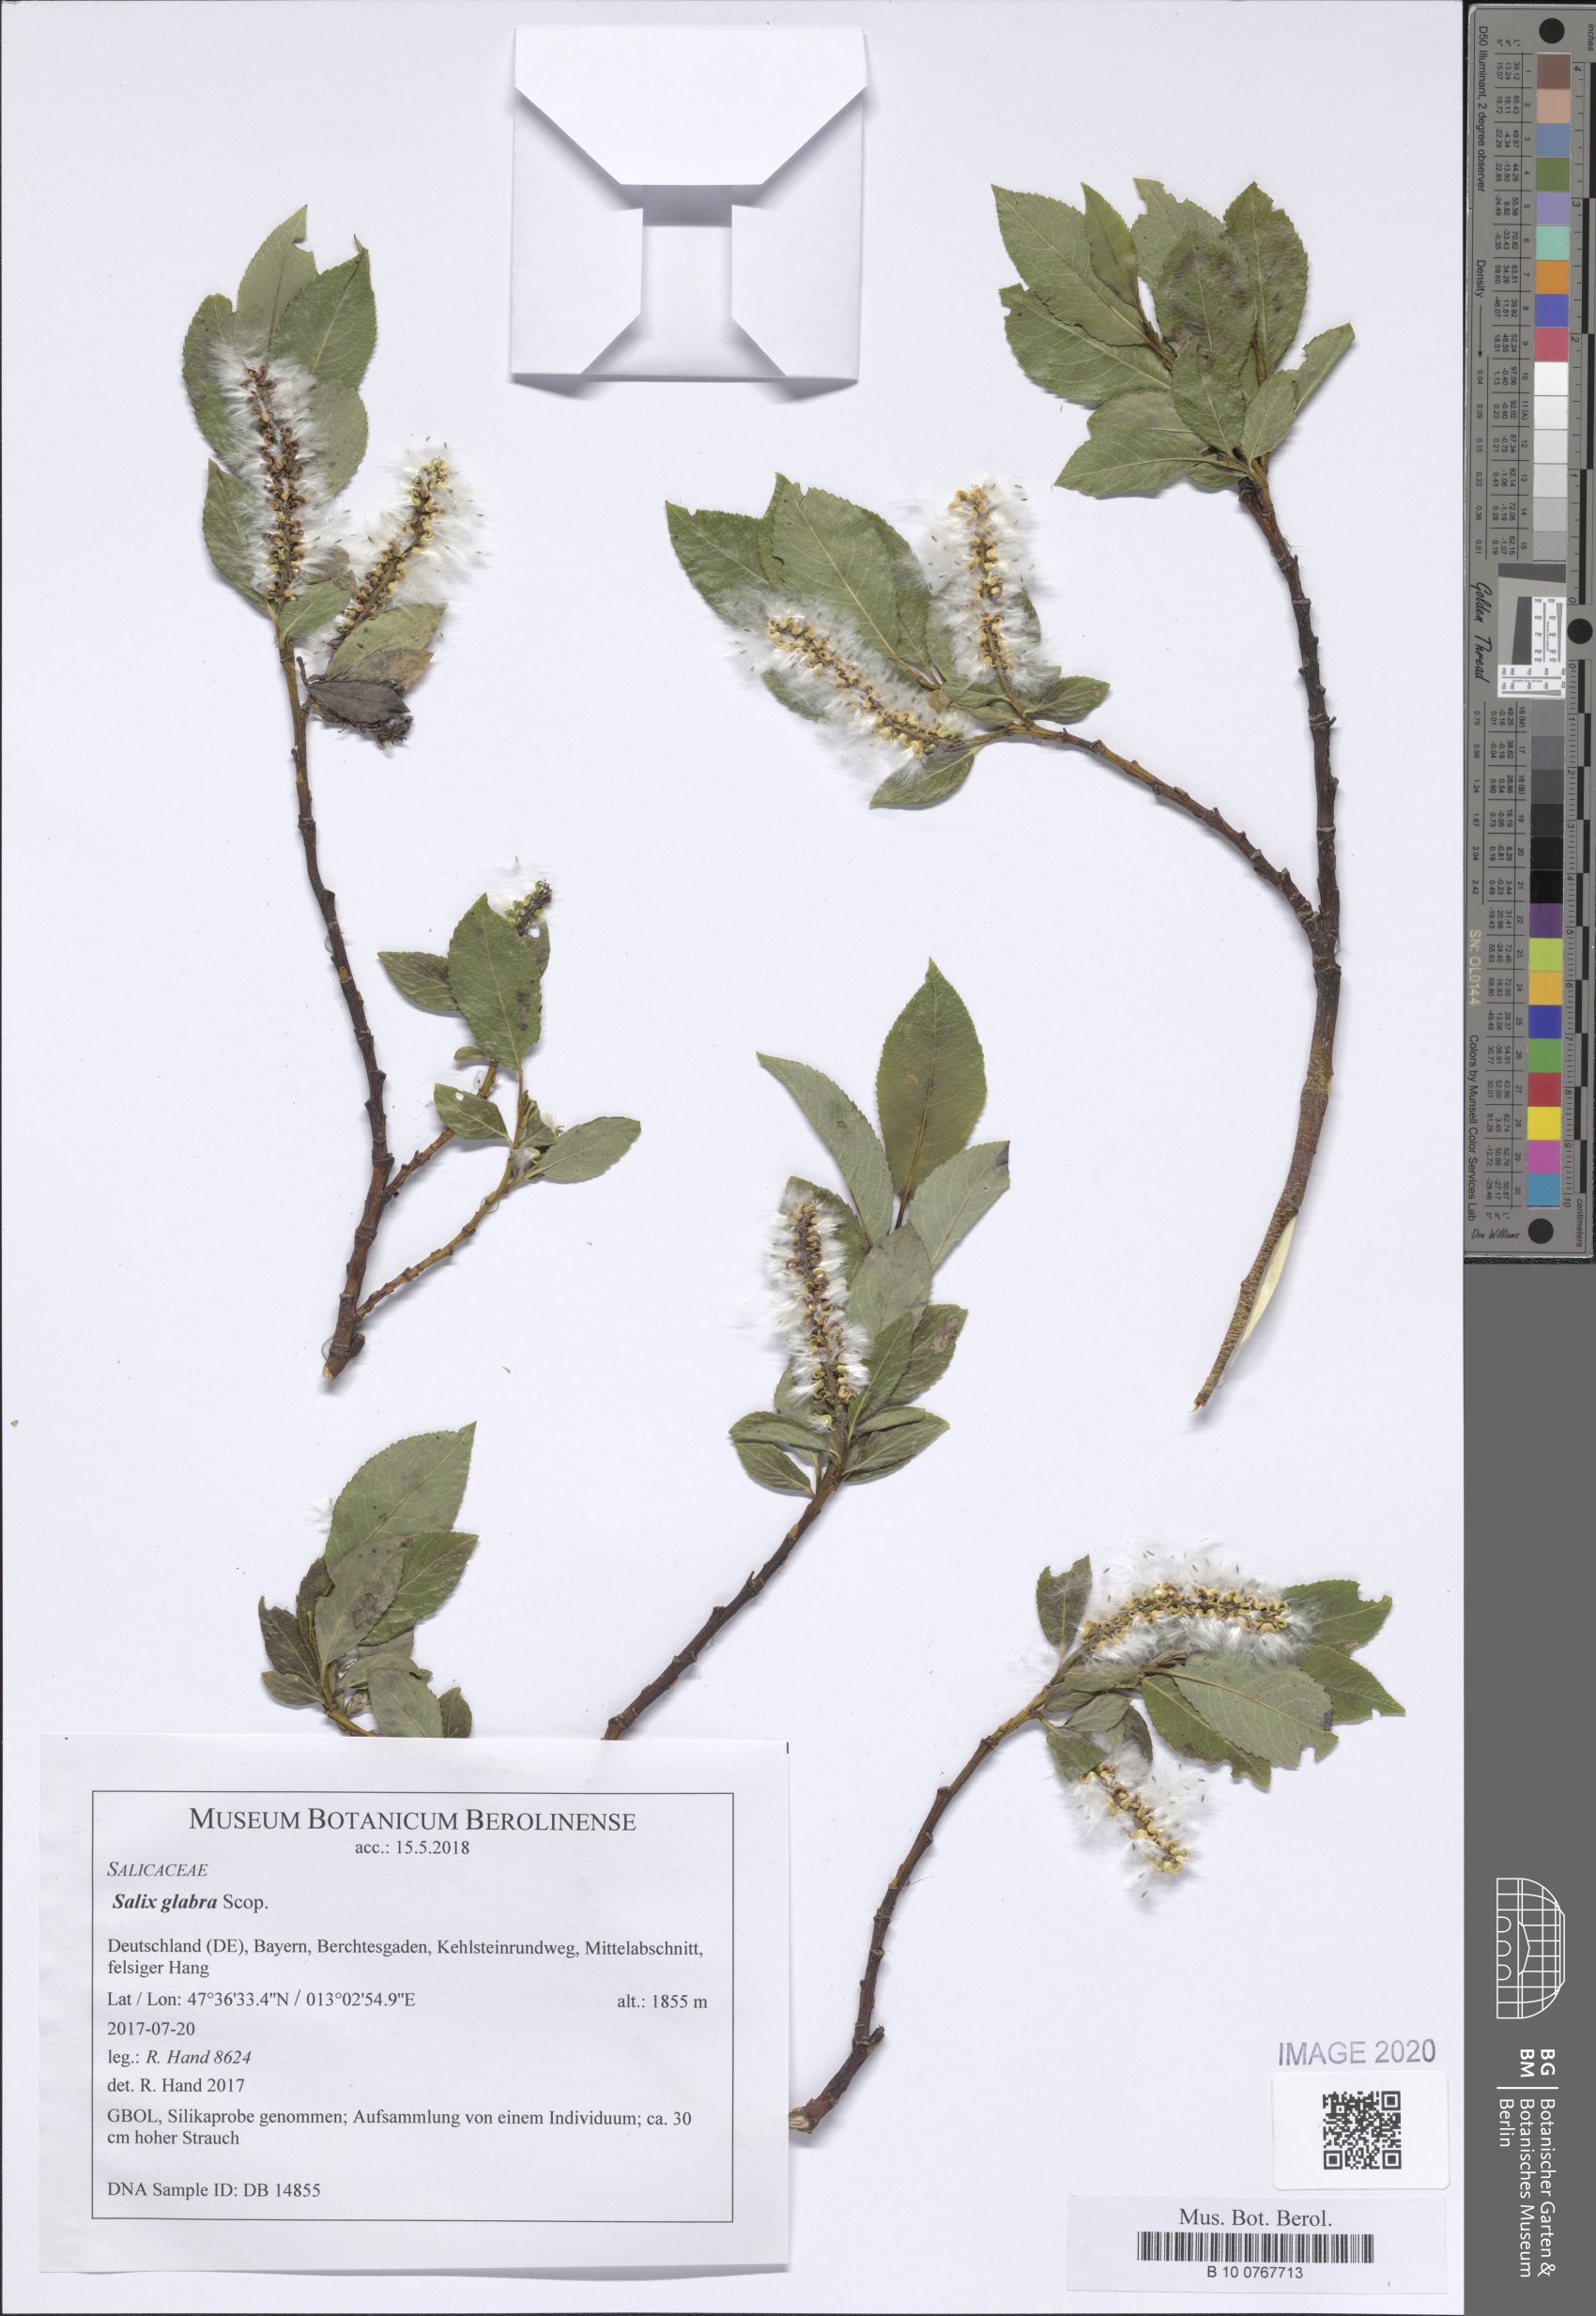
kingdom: Plantae
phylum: Tracheophyta
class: Magnoliopsida
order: Malpighiales
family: Salicaceae
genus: Salix
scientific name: Salix glabra
